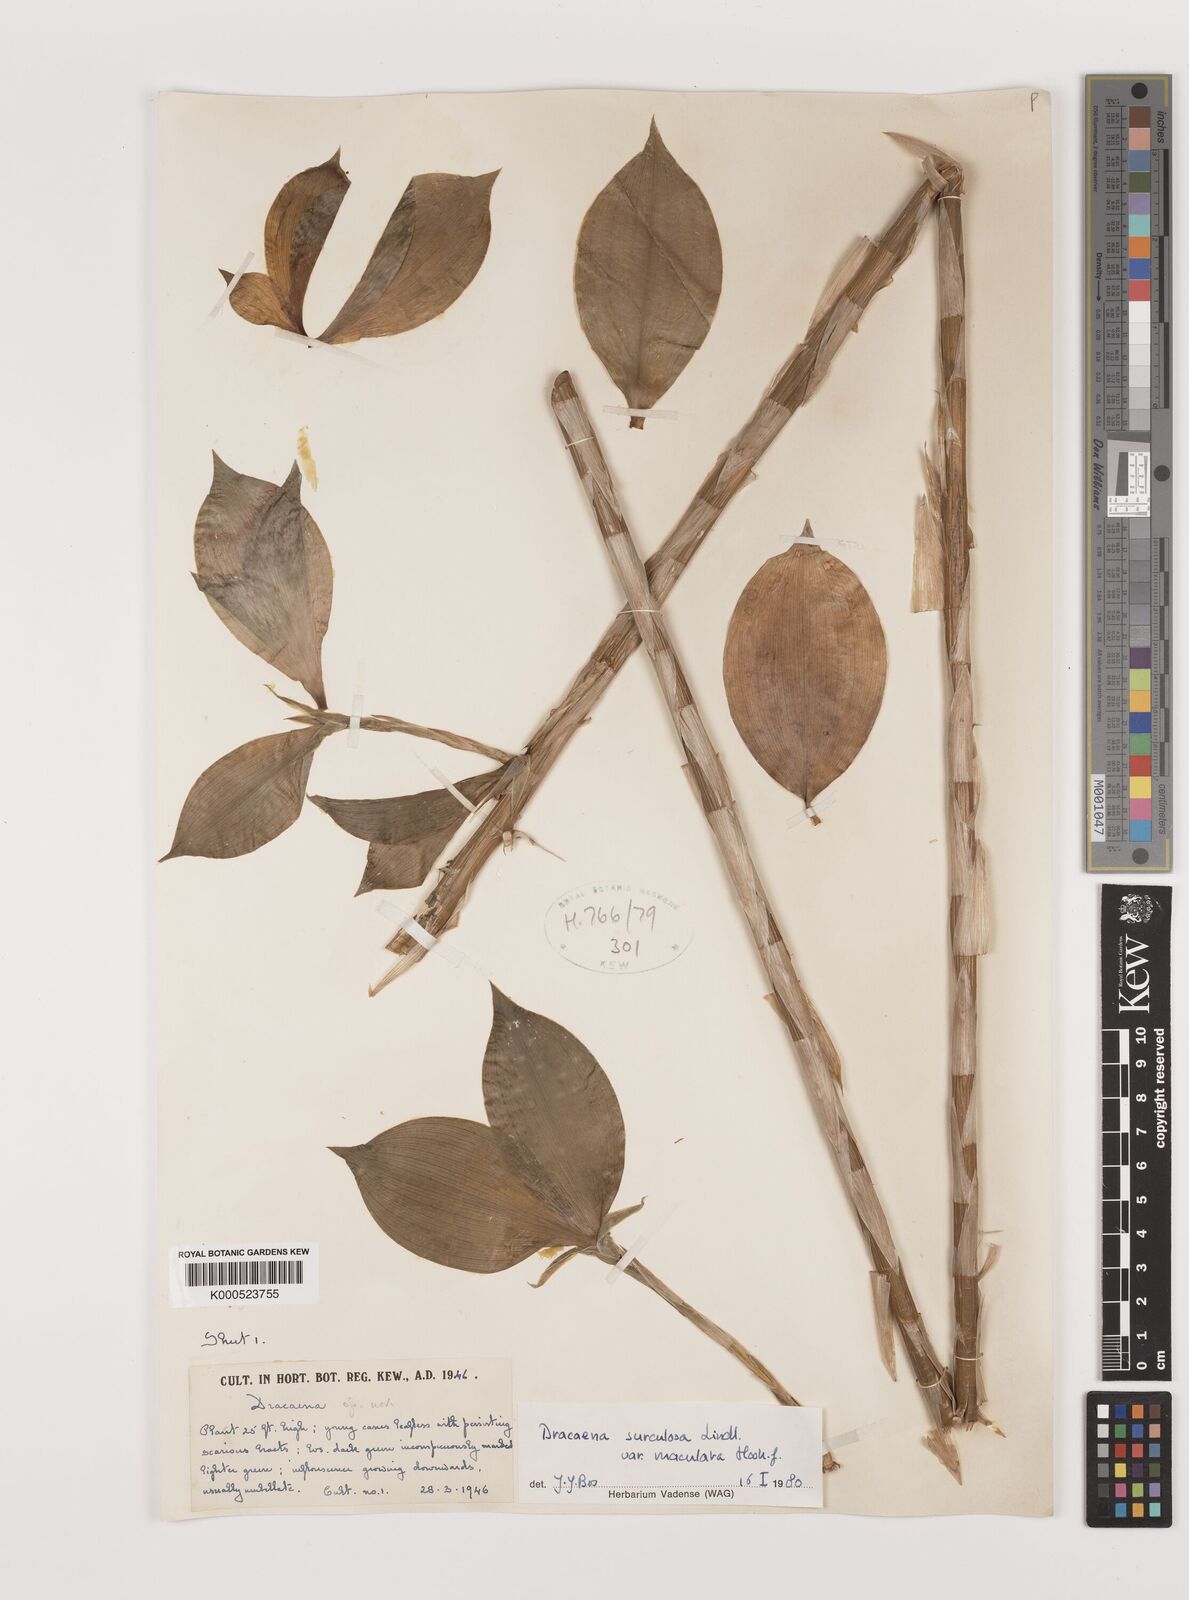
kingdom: Plantae
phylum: Tracheophyta
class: Liliopsida
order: Asparagales
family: Asparagaceae
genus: Dracaena
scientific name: Dracaena surculosa
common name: Spotted dracaena
